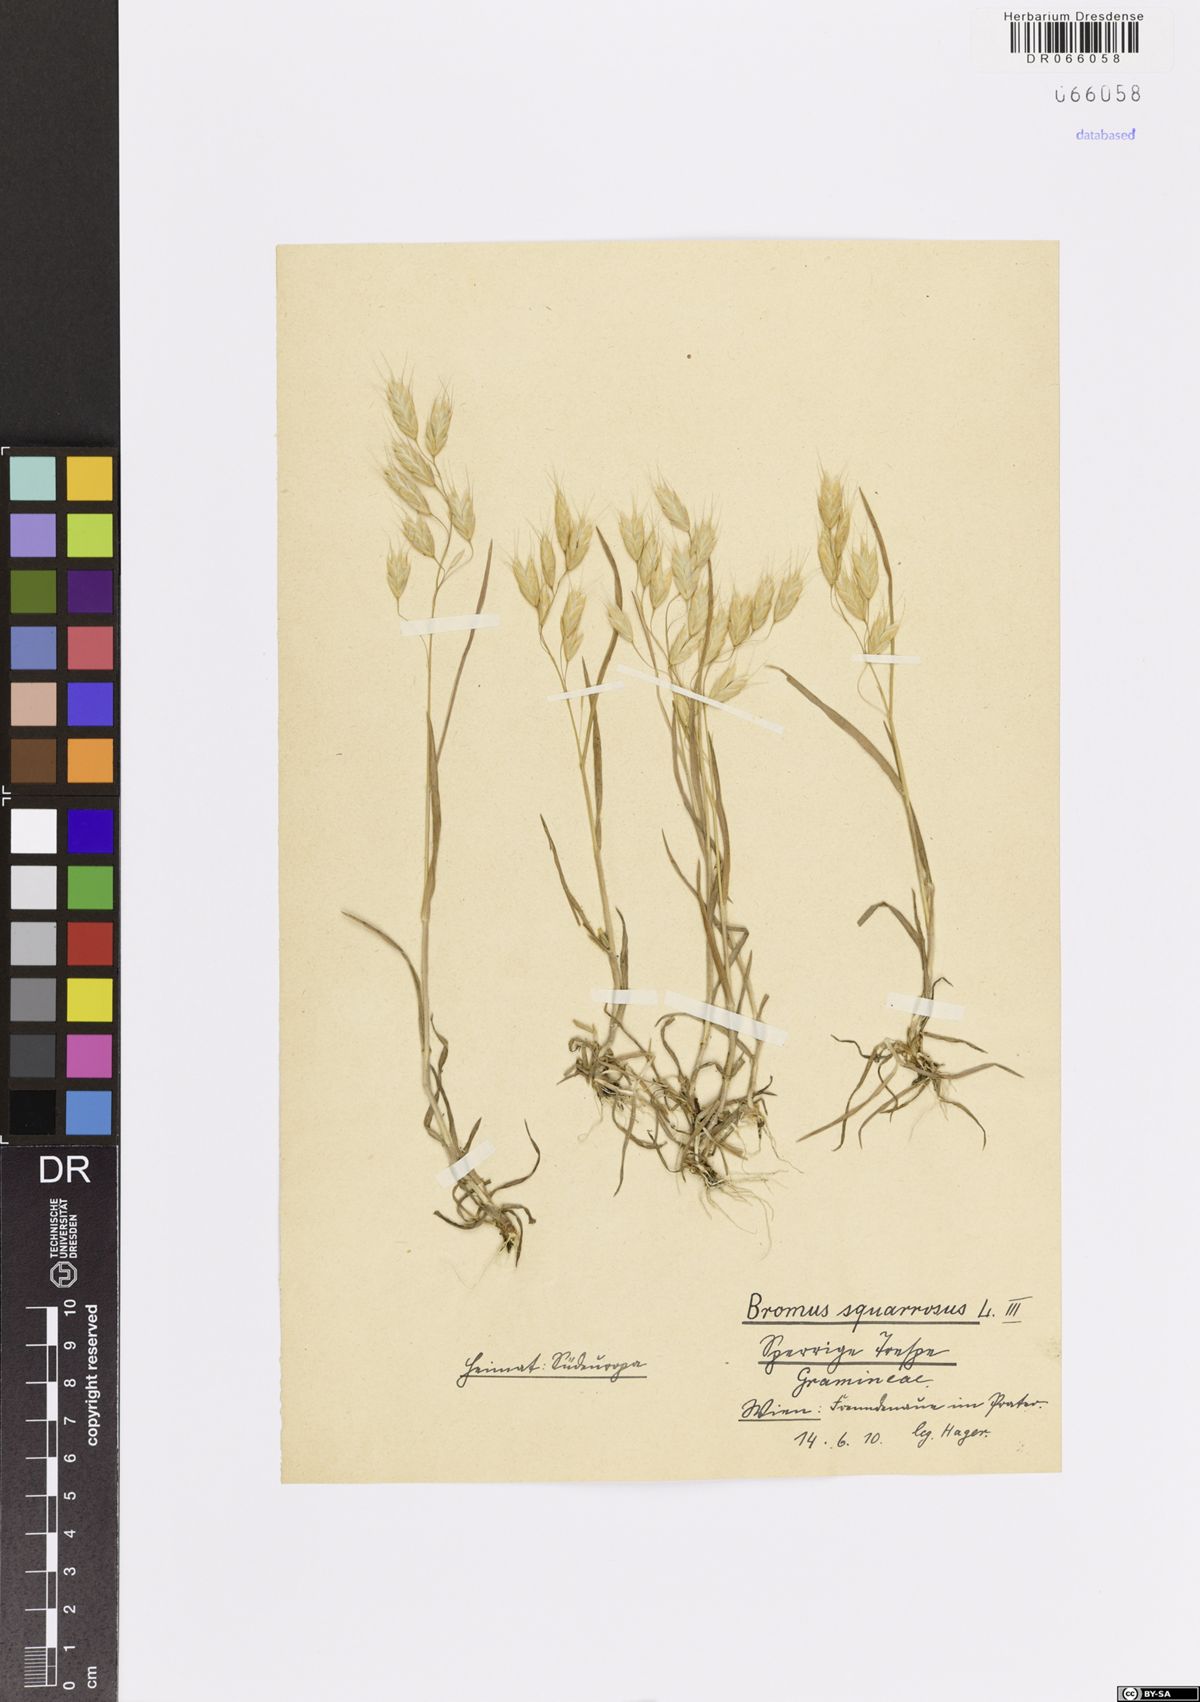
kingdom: Plantae
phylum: Tracheophyta
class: Liliopsida
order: Poales
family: Poaceae
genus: Bromus
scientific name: Bromus squarrosus
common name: Corn brome
